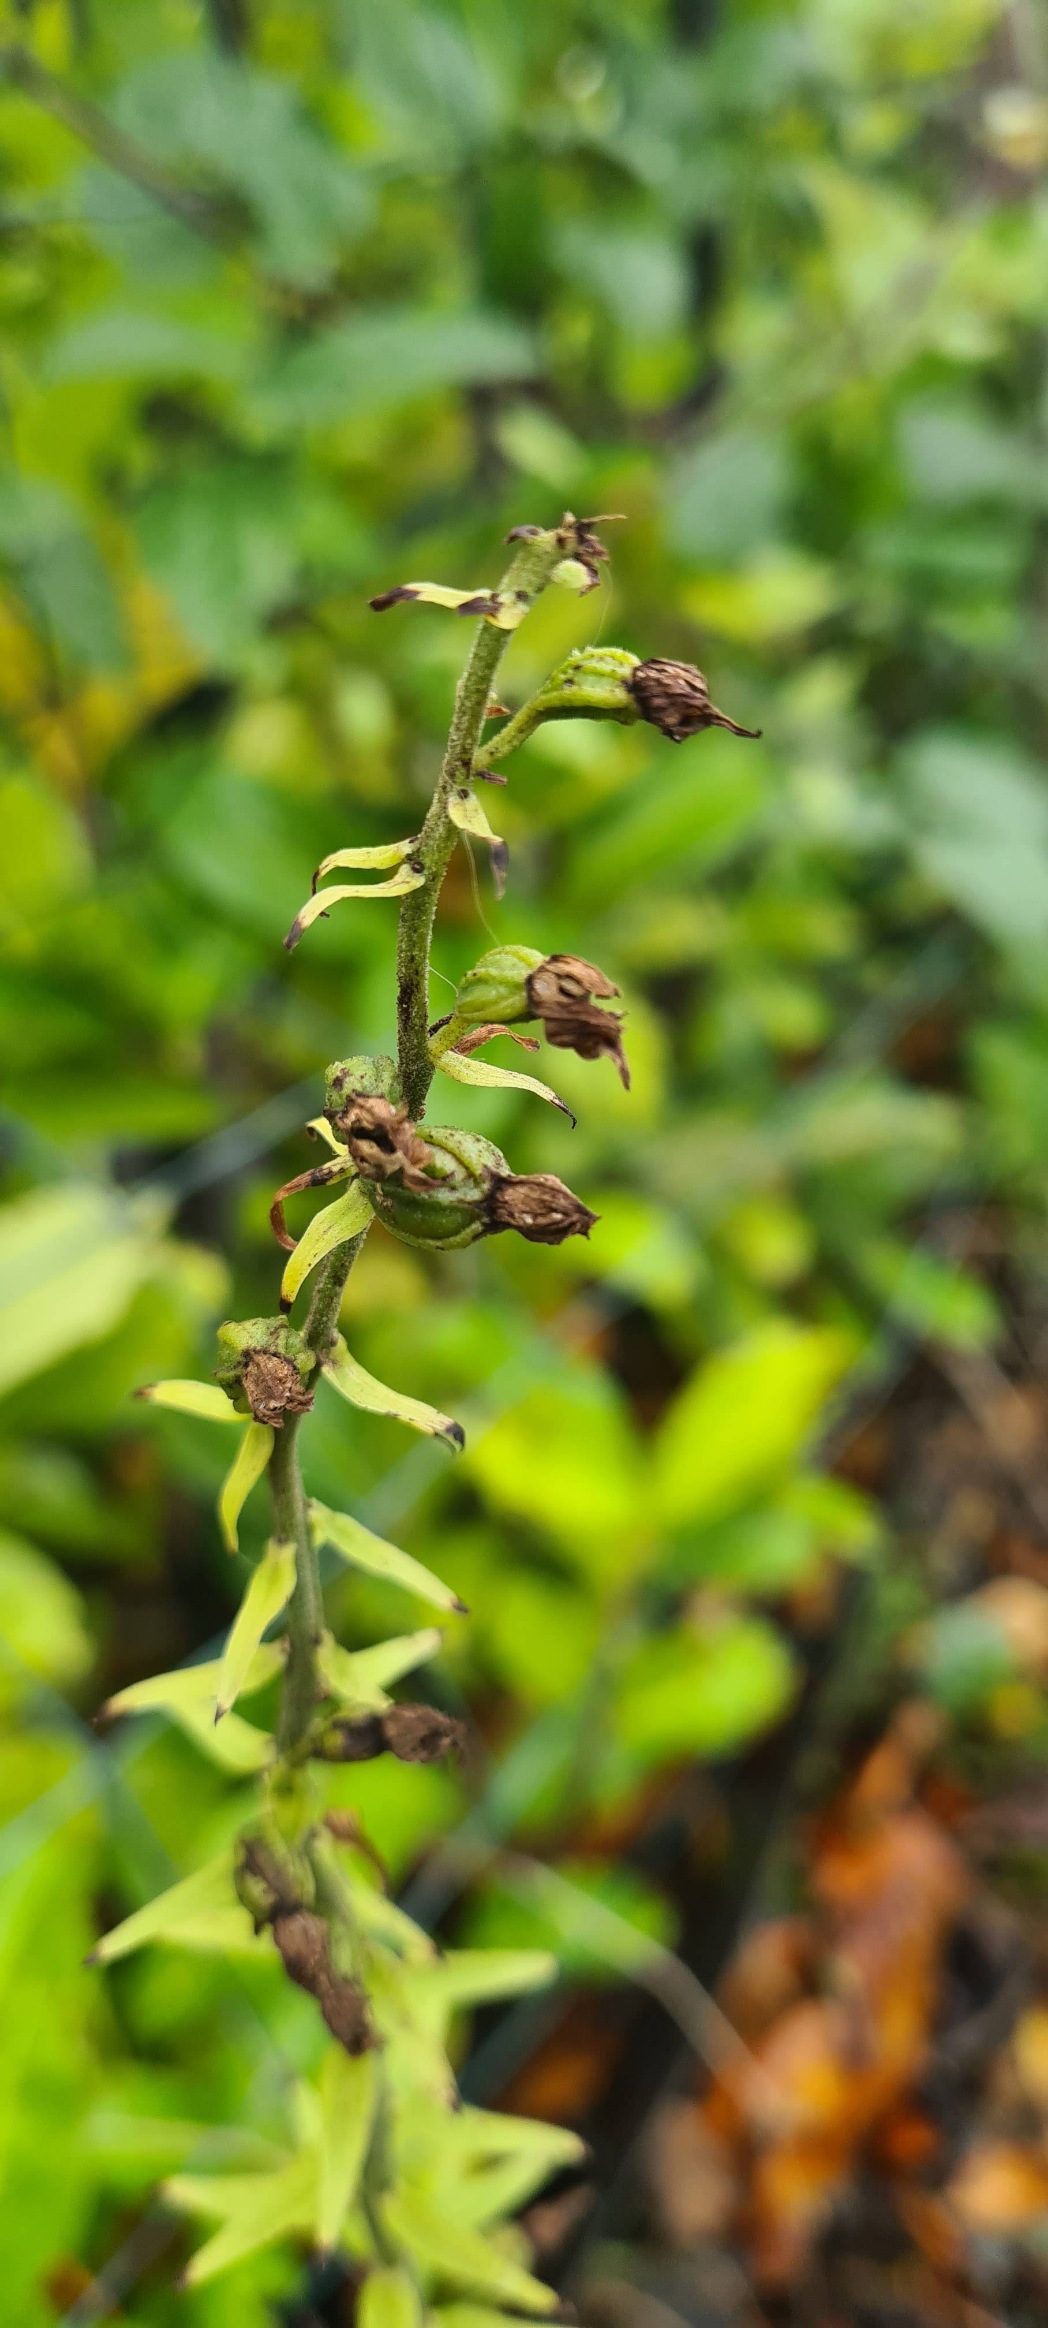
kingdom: Plantae
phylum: Tracheophyta
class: Liliopsida
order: Asparagales
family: Orchidaceae
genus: Epipactis
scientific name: Epipactis helleborine
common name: Skov-hullæbe
